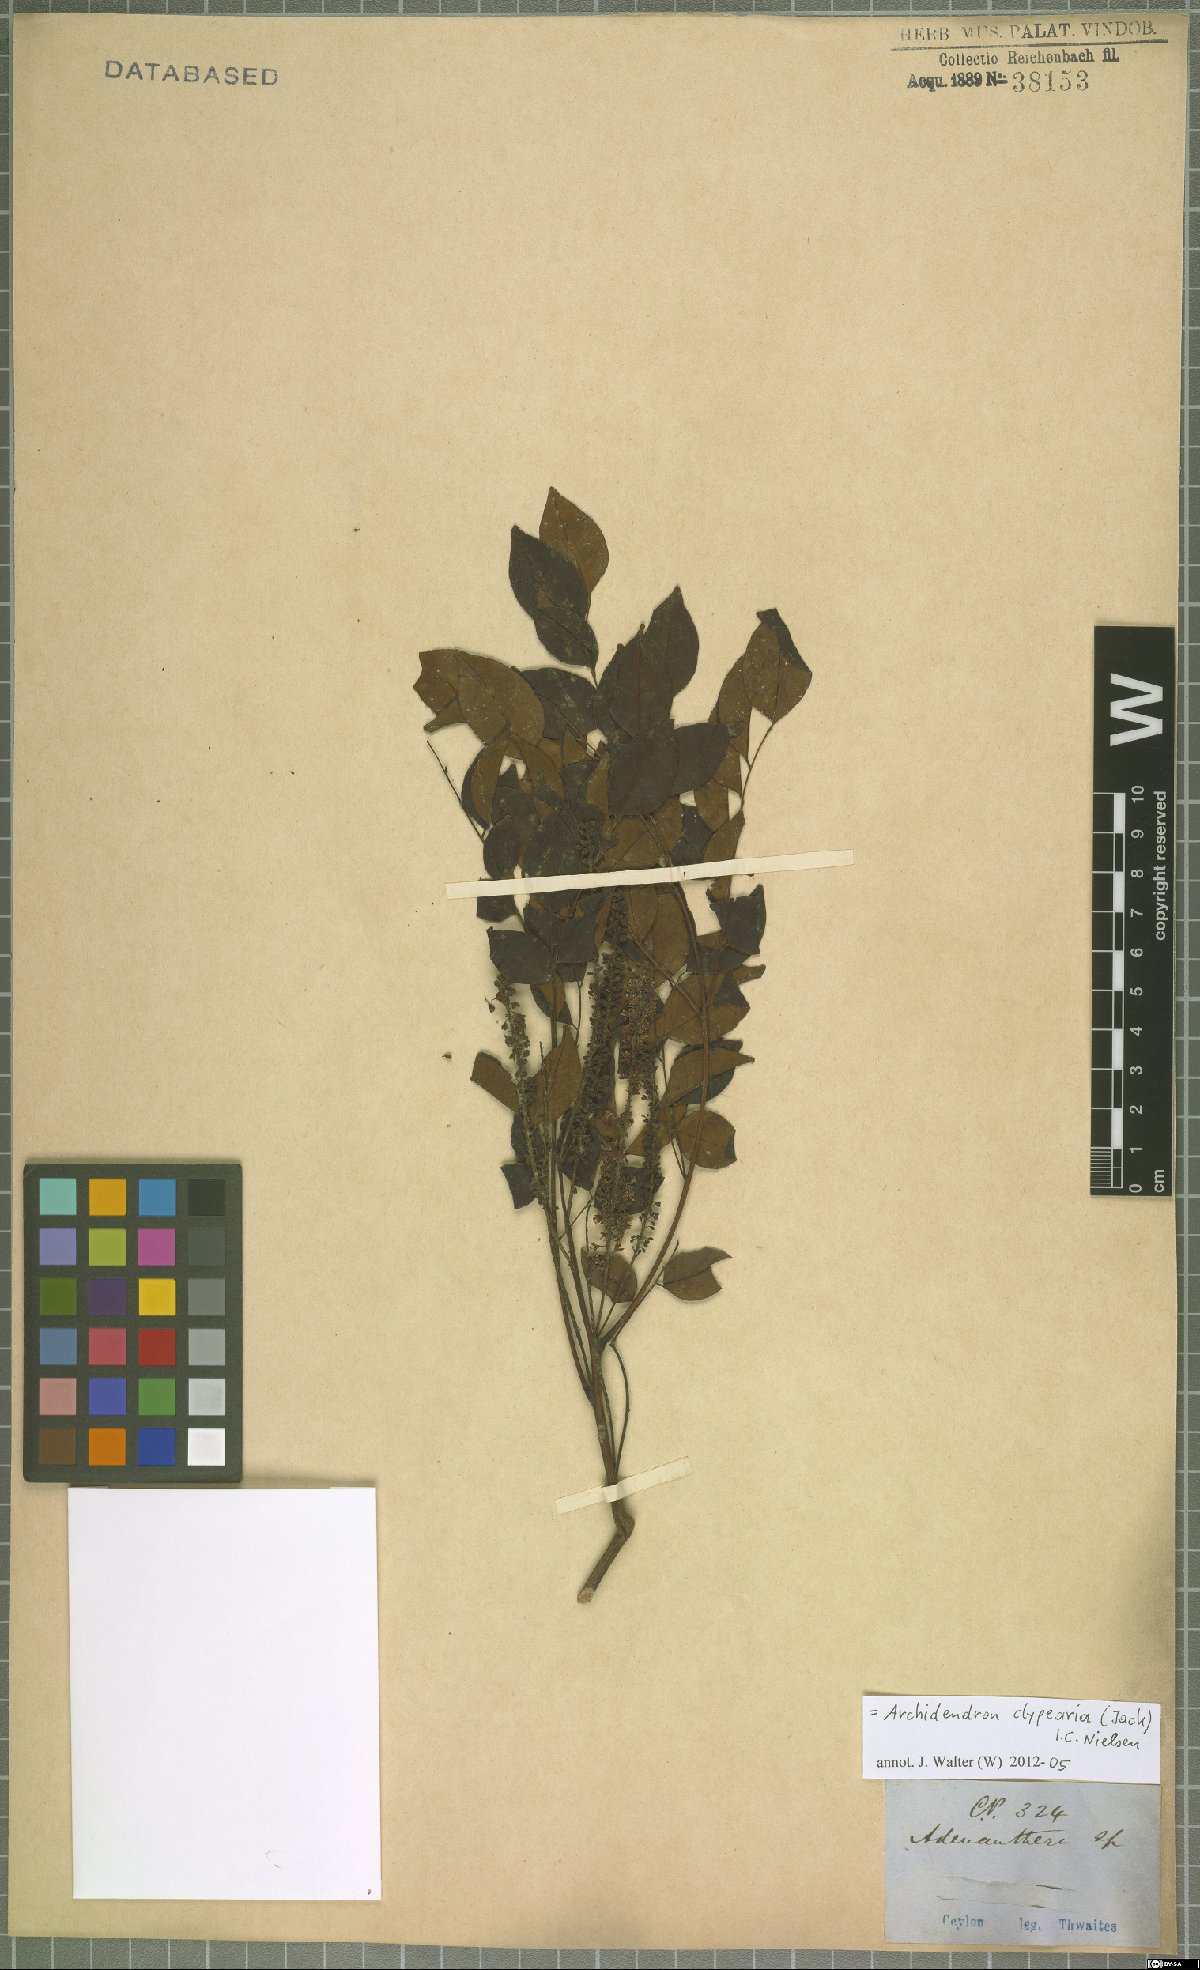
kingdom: Plantae
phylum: Tracheophyta
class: Magnoliopsida
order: Fabales
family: Fabaceae
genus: Archidendron
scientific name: Archidendron clypearia
